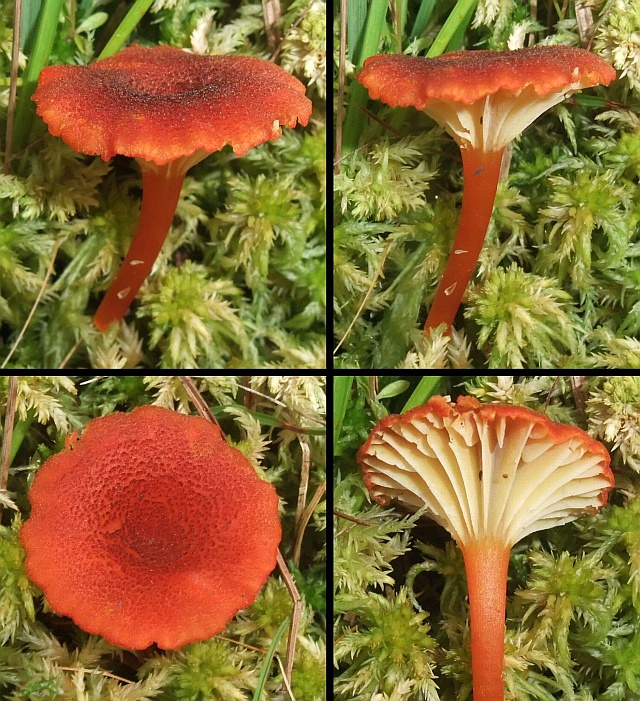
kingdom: Fungi
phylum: Basidiomycota
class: Agaricomycetes
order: Agaricales
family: Hygrophoraceae
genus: Hygrocybe
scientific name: Hygrocybe coccineocrenata
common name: tørvemos-vokshat
